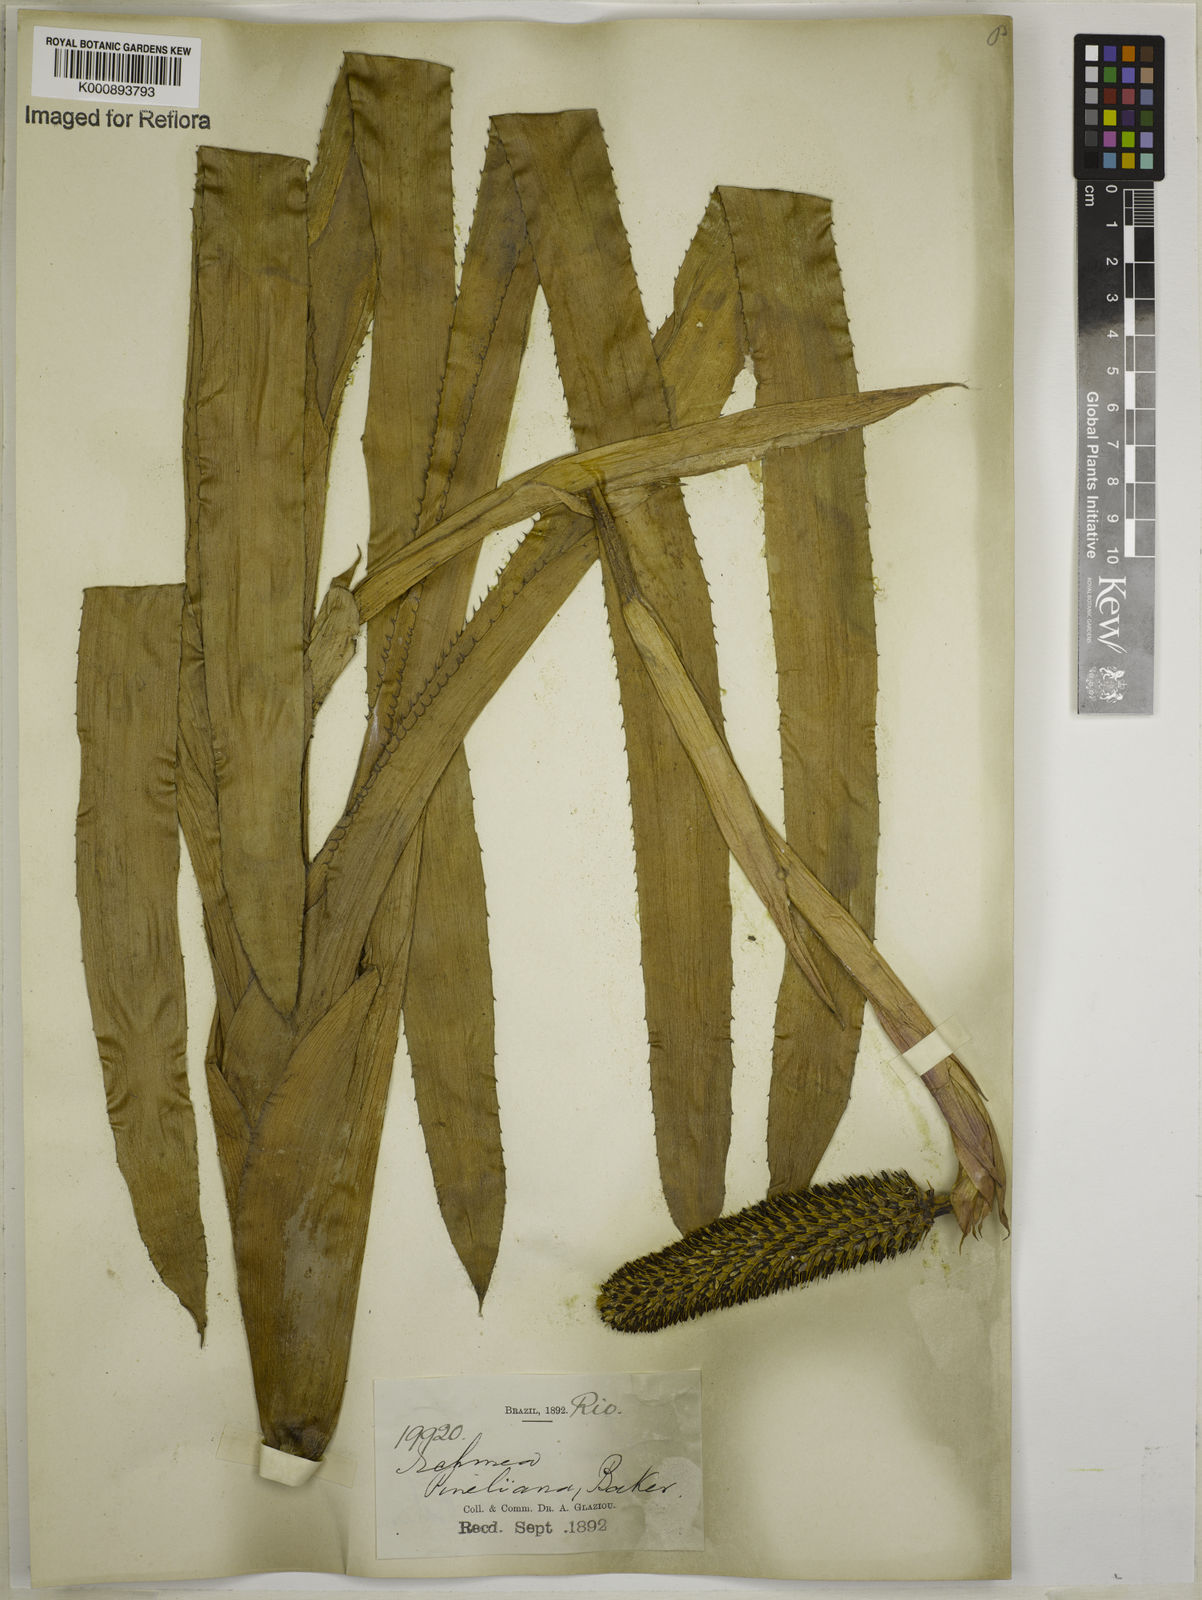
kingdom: Plantae
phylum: Tracheophyta
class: Liliopsida
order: Poales
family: Bromeliaceae
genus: Aechmea
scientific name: Aechmea pineliana
